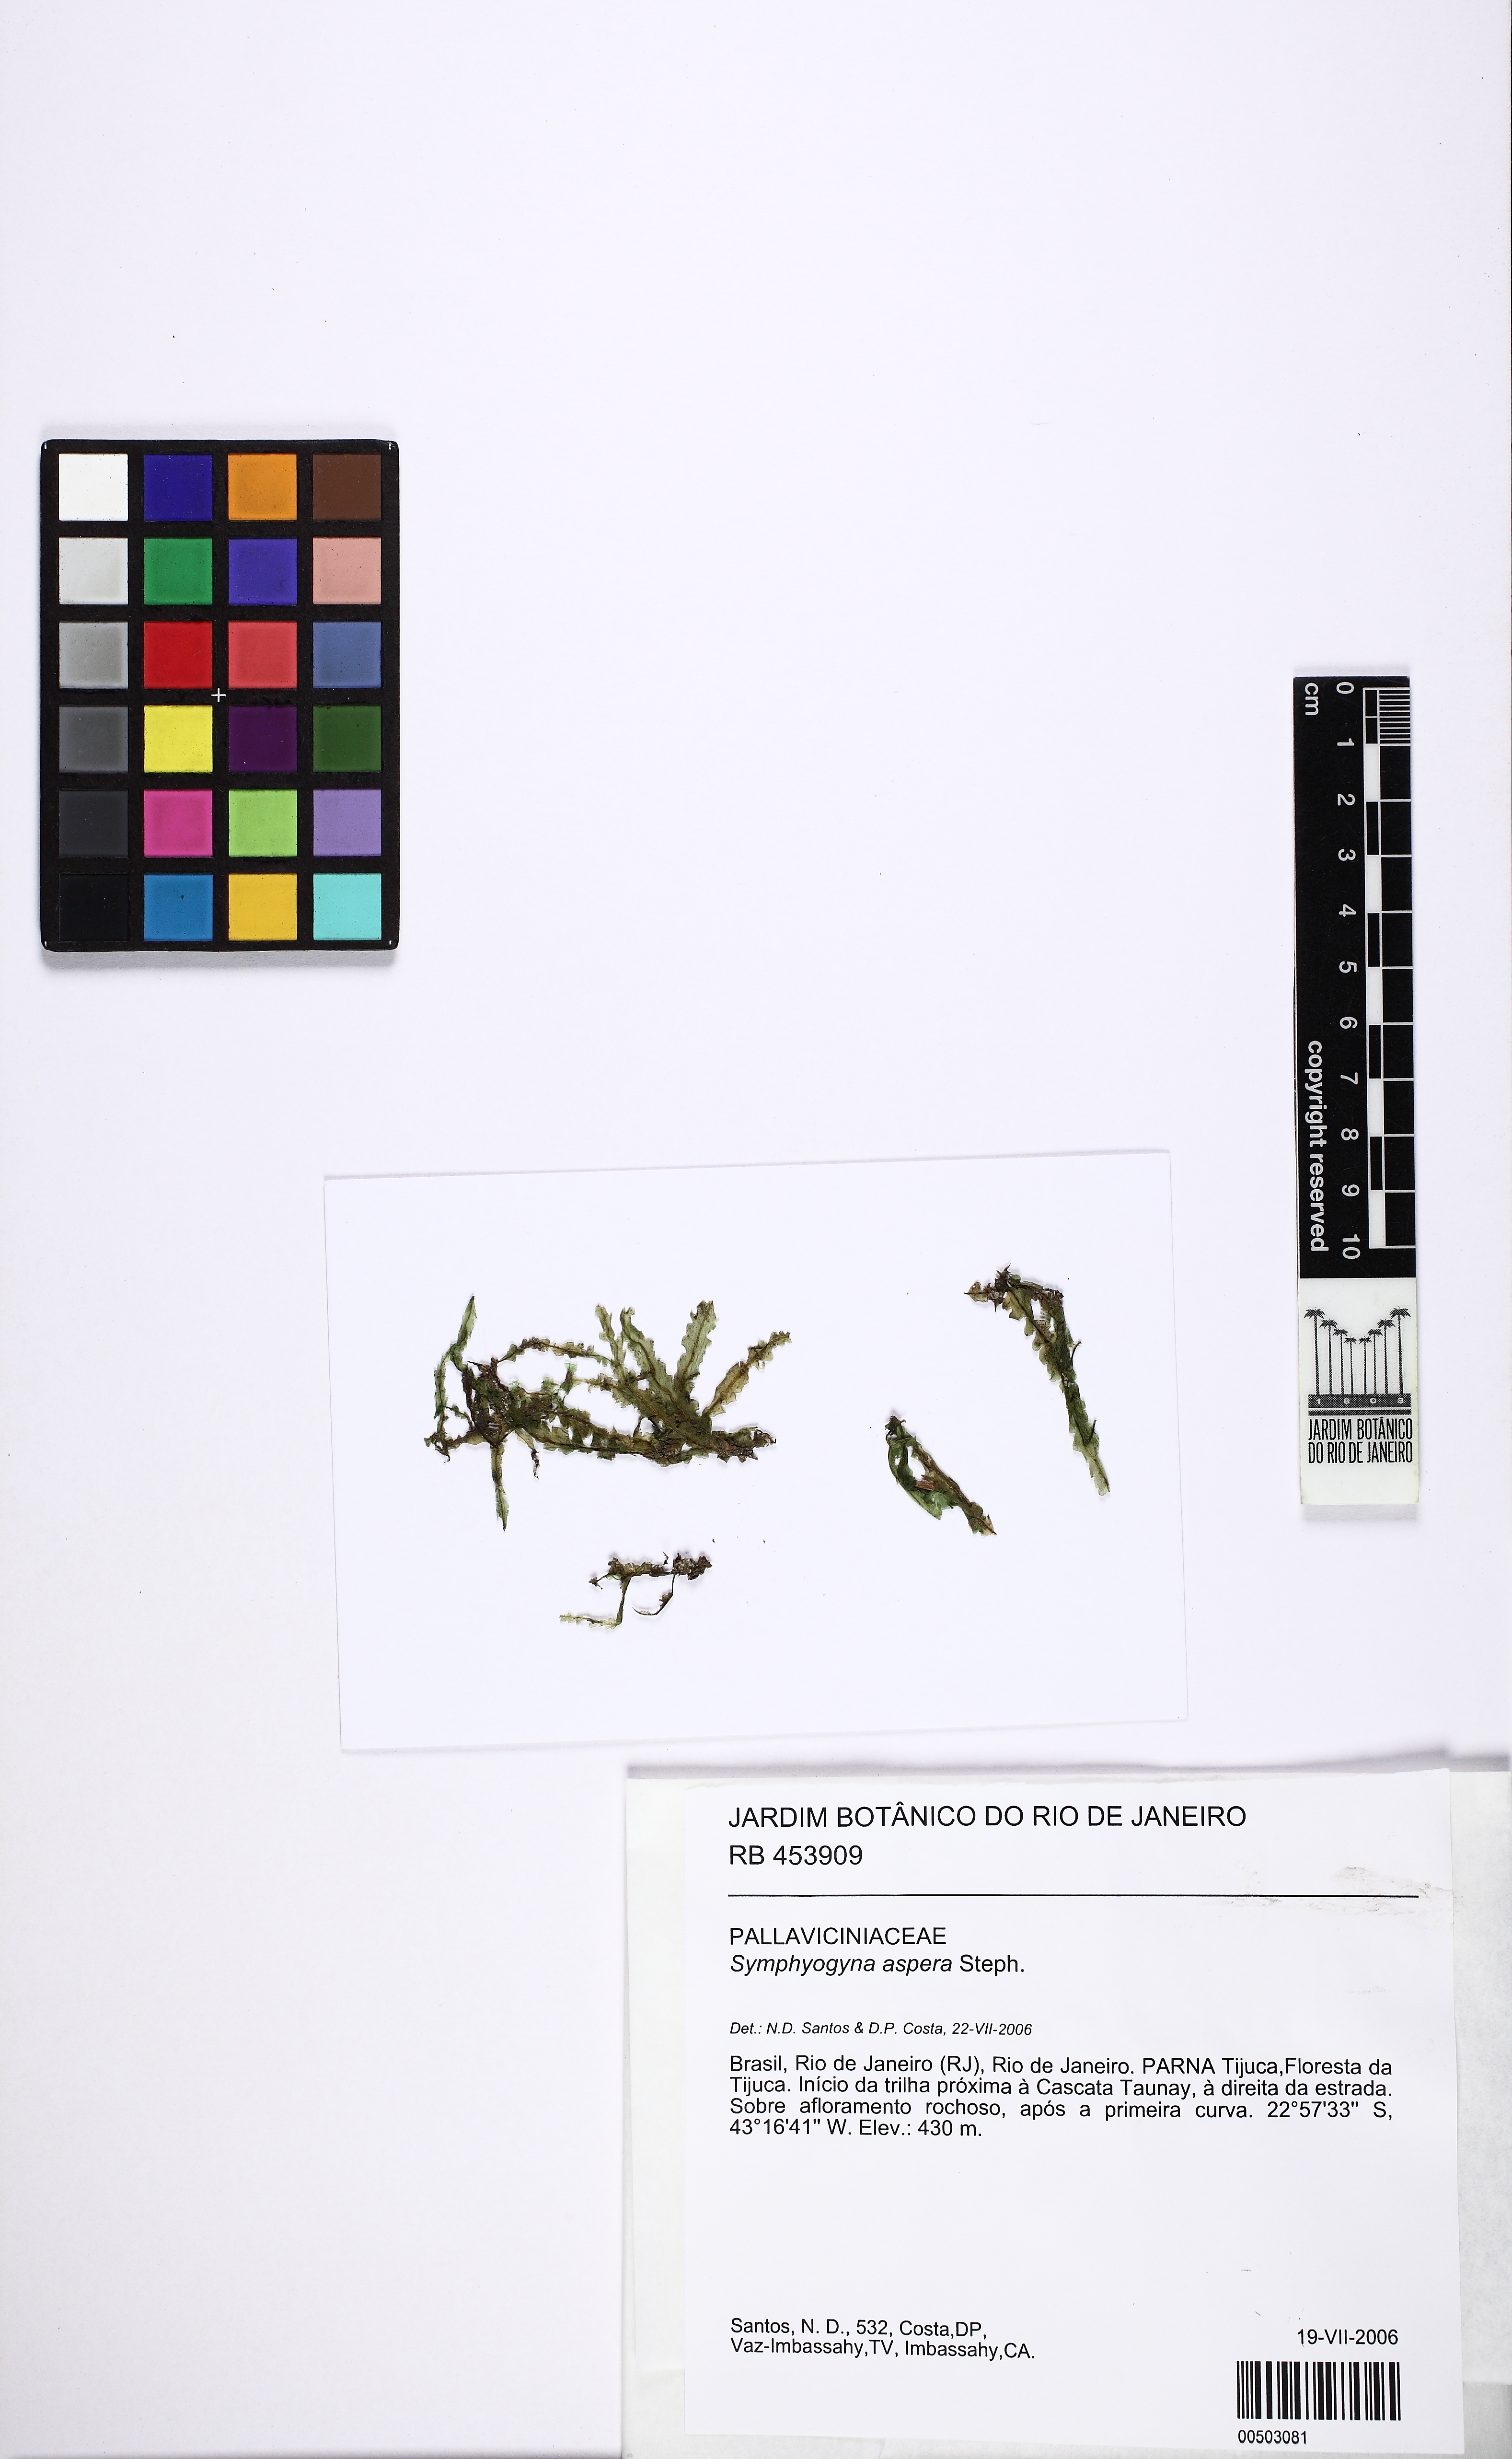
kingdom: Plantae
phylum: Marchantiophyta
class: Jungermanniopsida
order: Pallaviciniales
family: Pallaviciniaceae
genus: Symphyogyna
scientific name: Symphyogyna aspera
